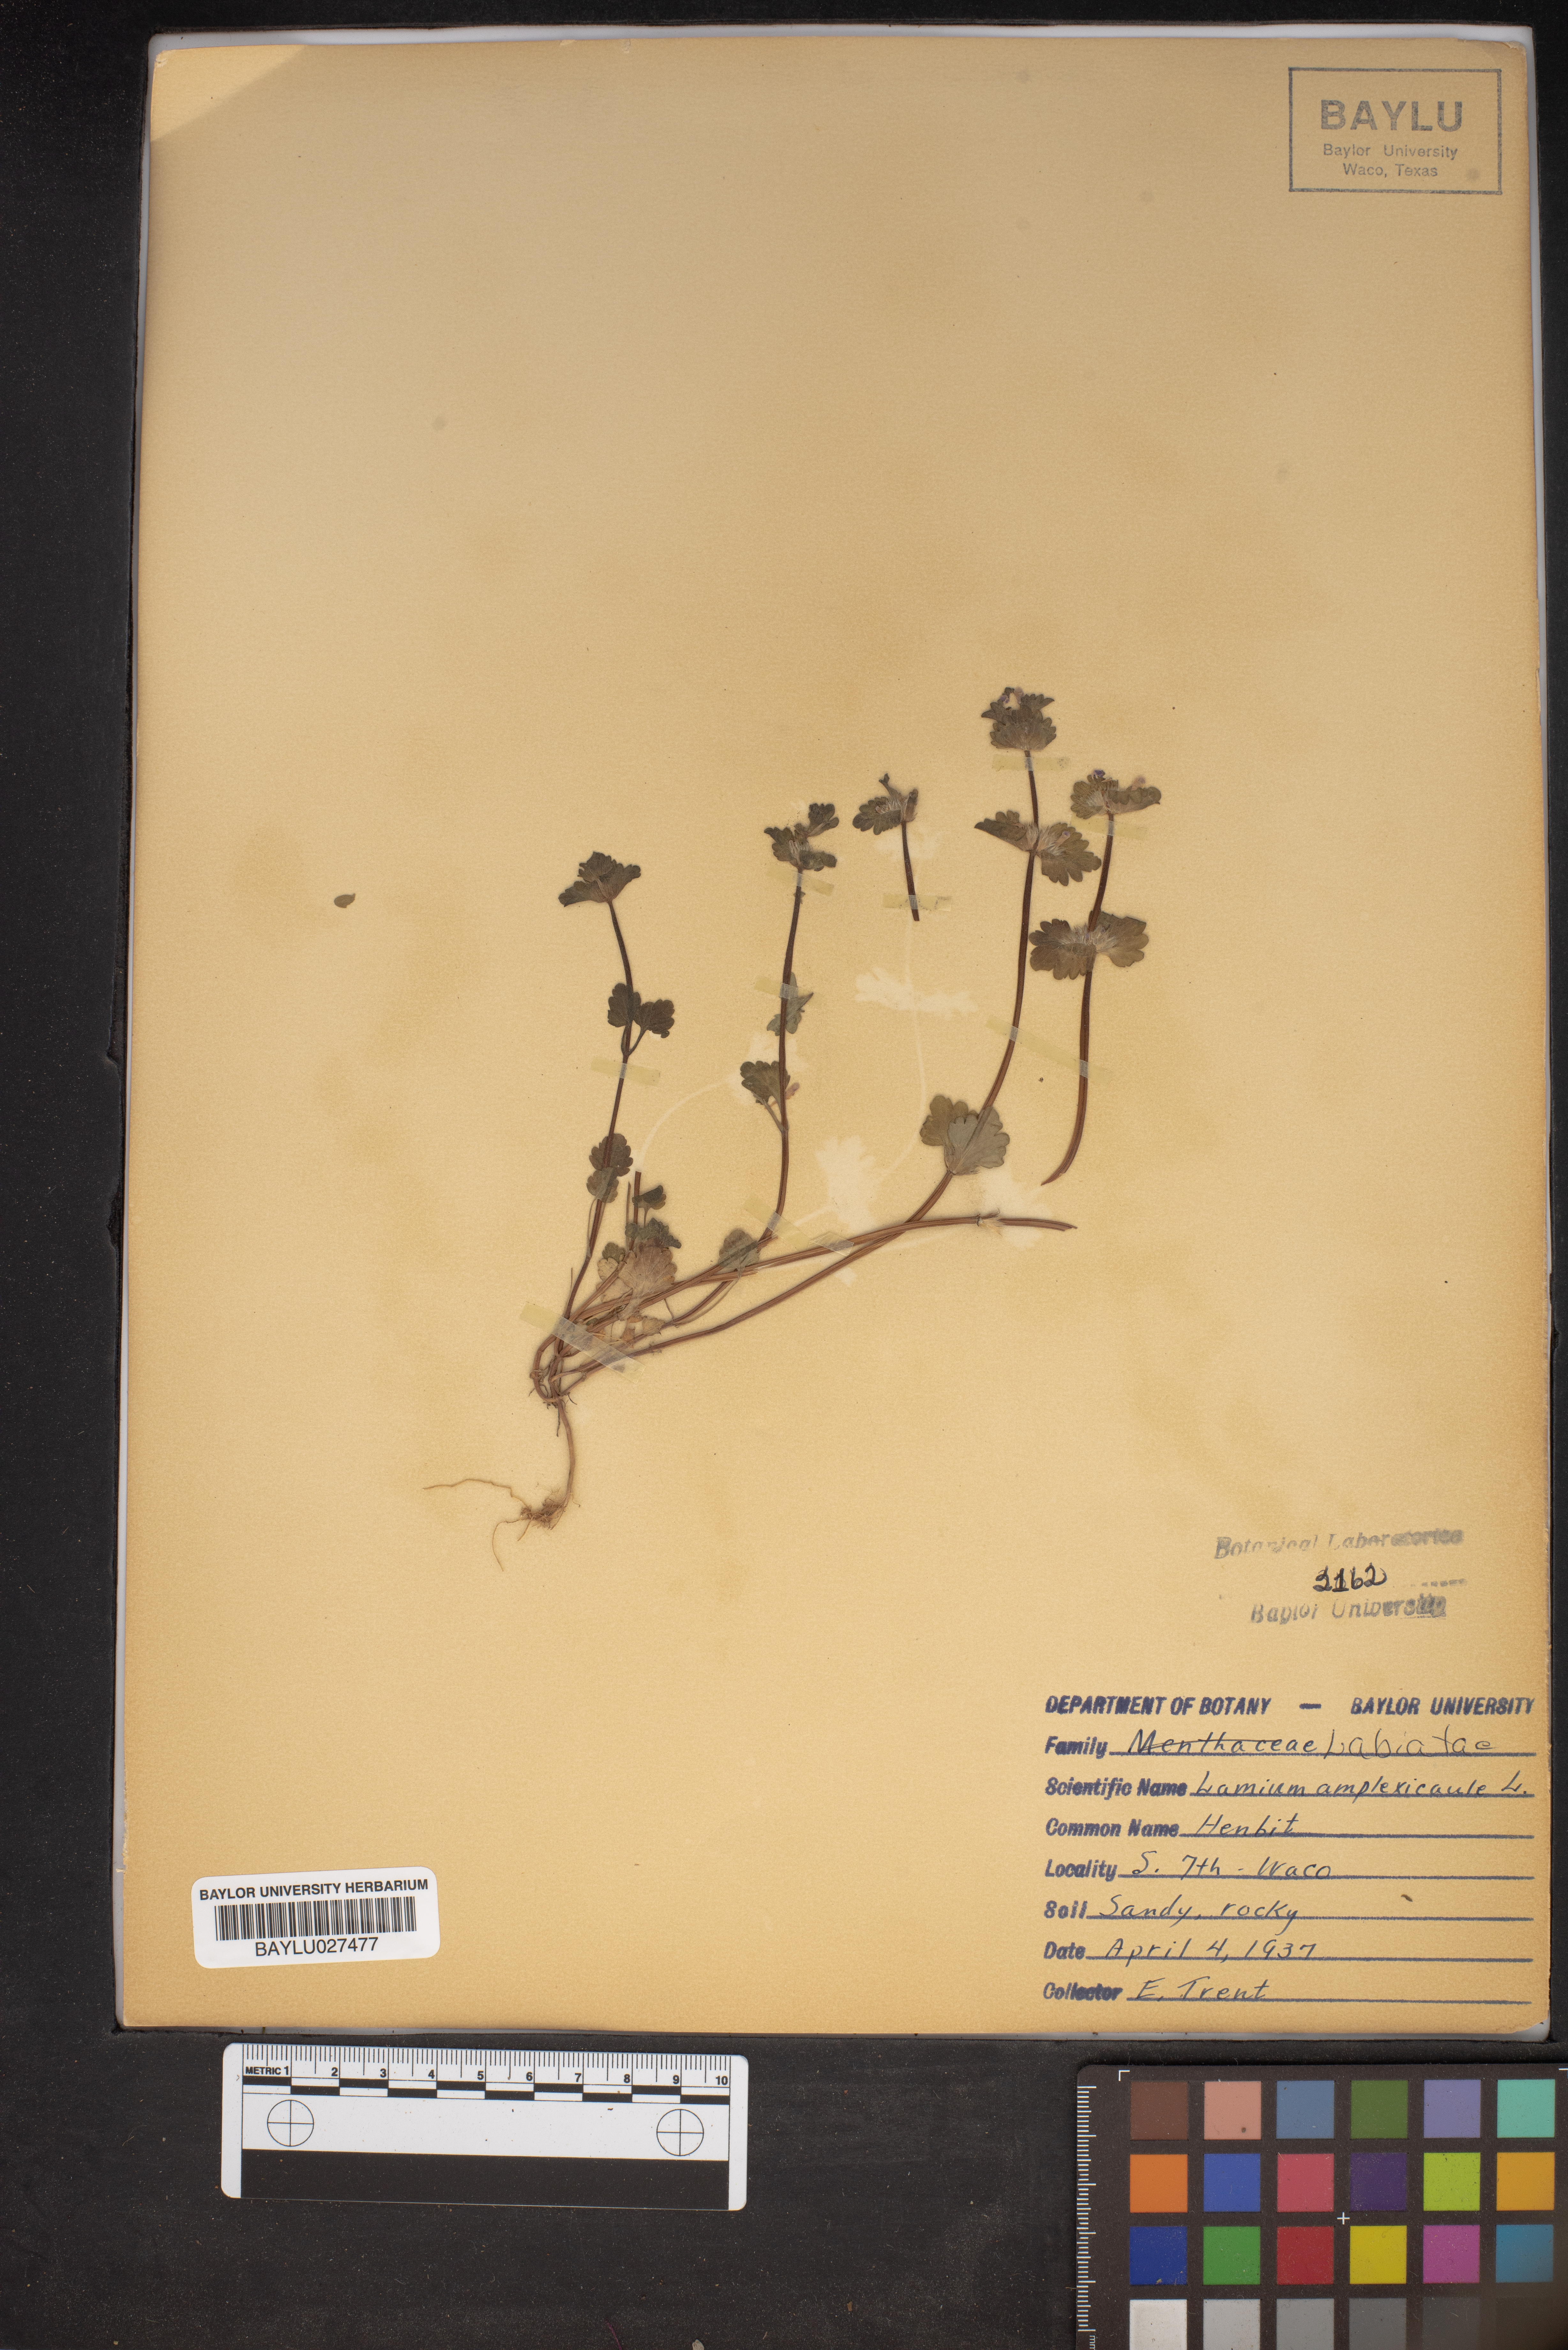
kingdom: Plantae
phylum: Tracheophyta
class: Magnoliopsida
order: Lamiales
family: Lamiaceae
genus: Lamium
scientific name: Lamium amplexicaule
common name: Henbit dead-nettle
